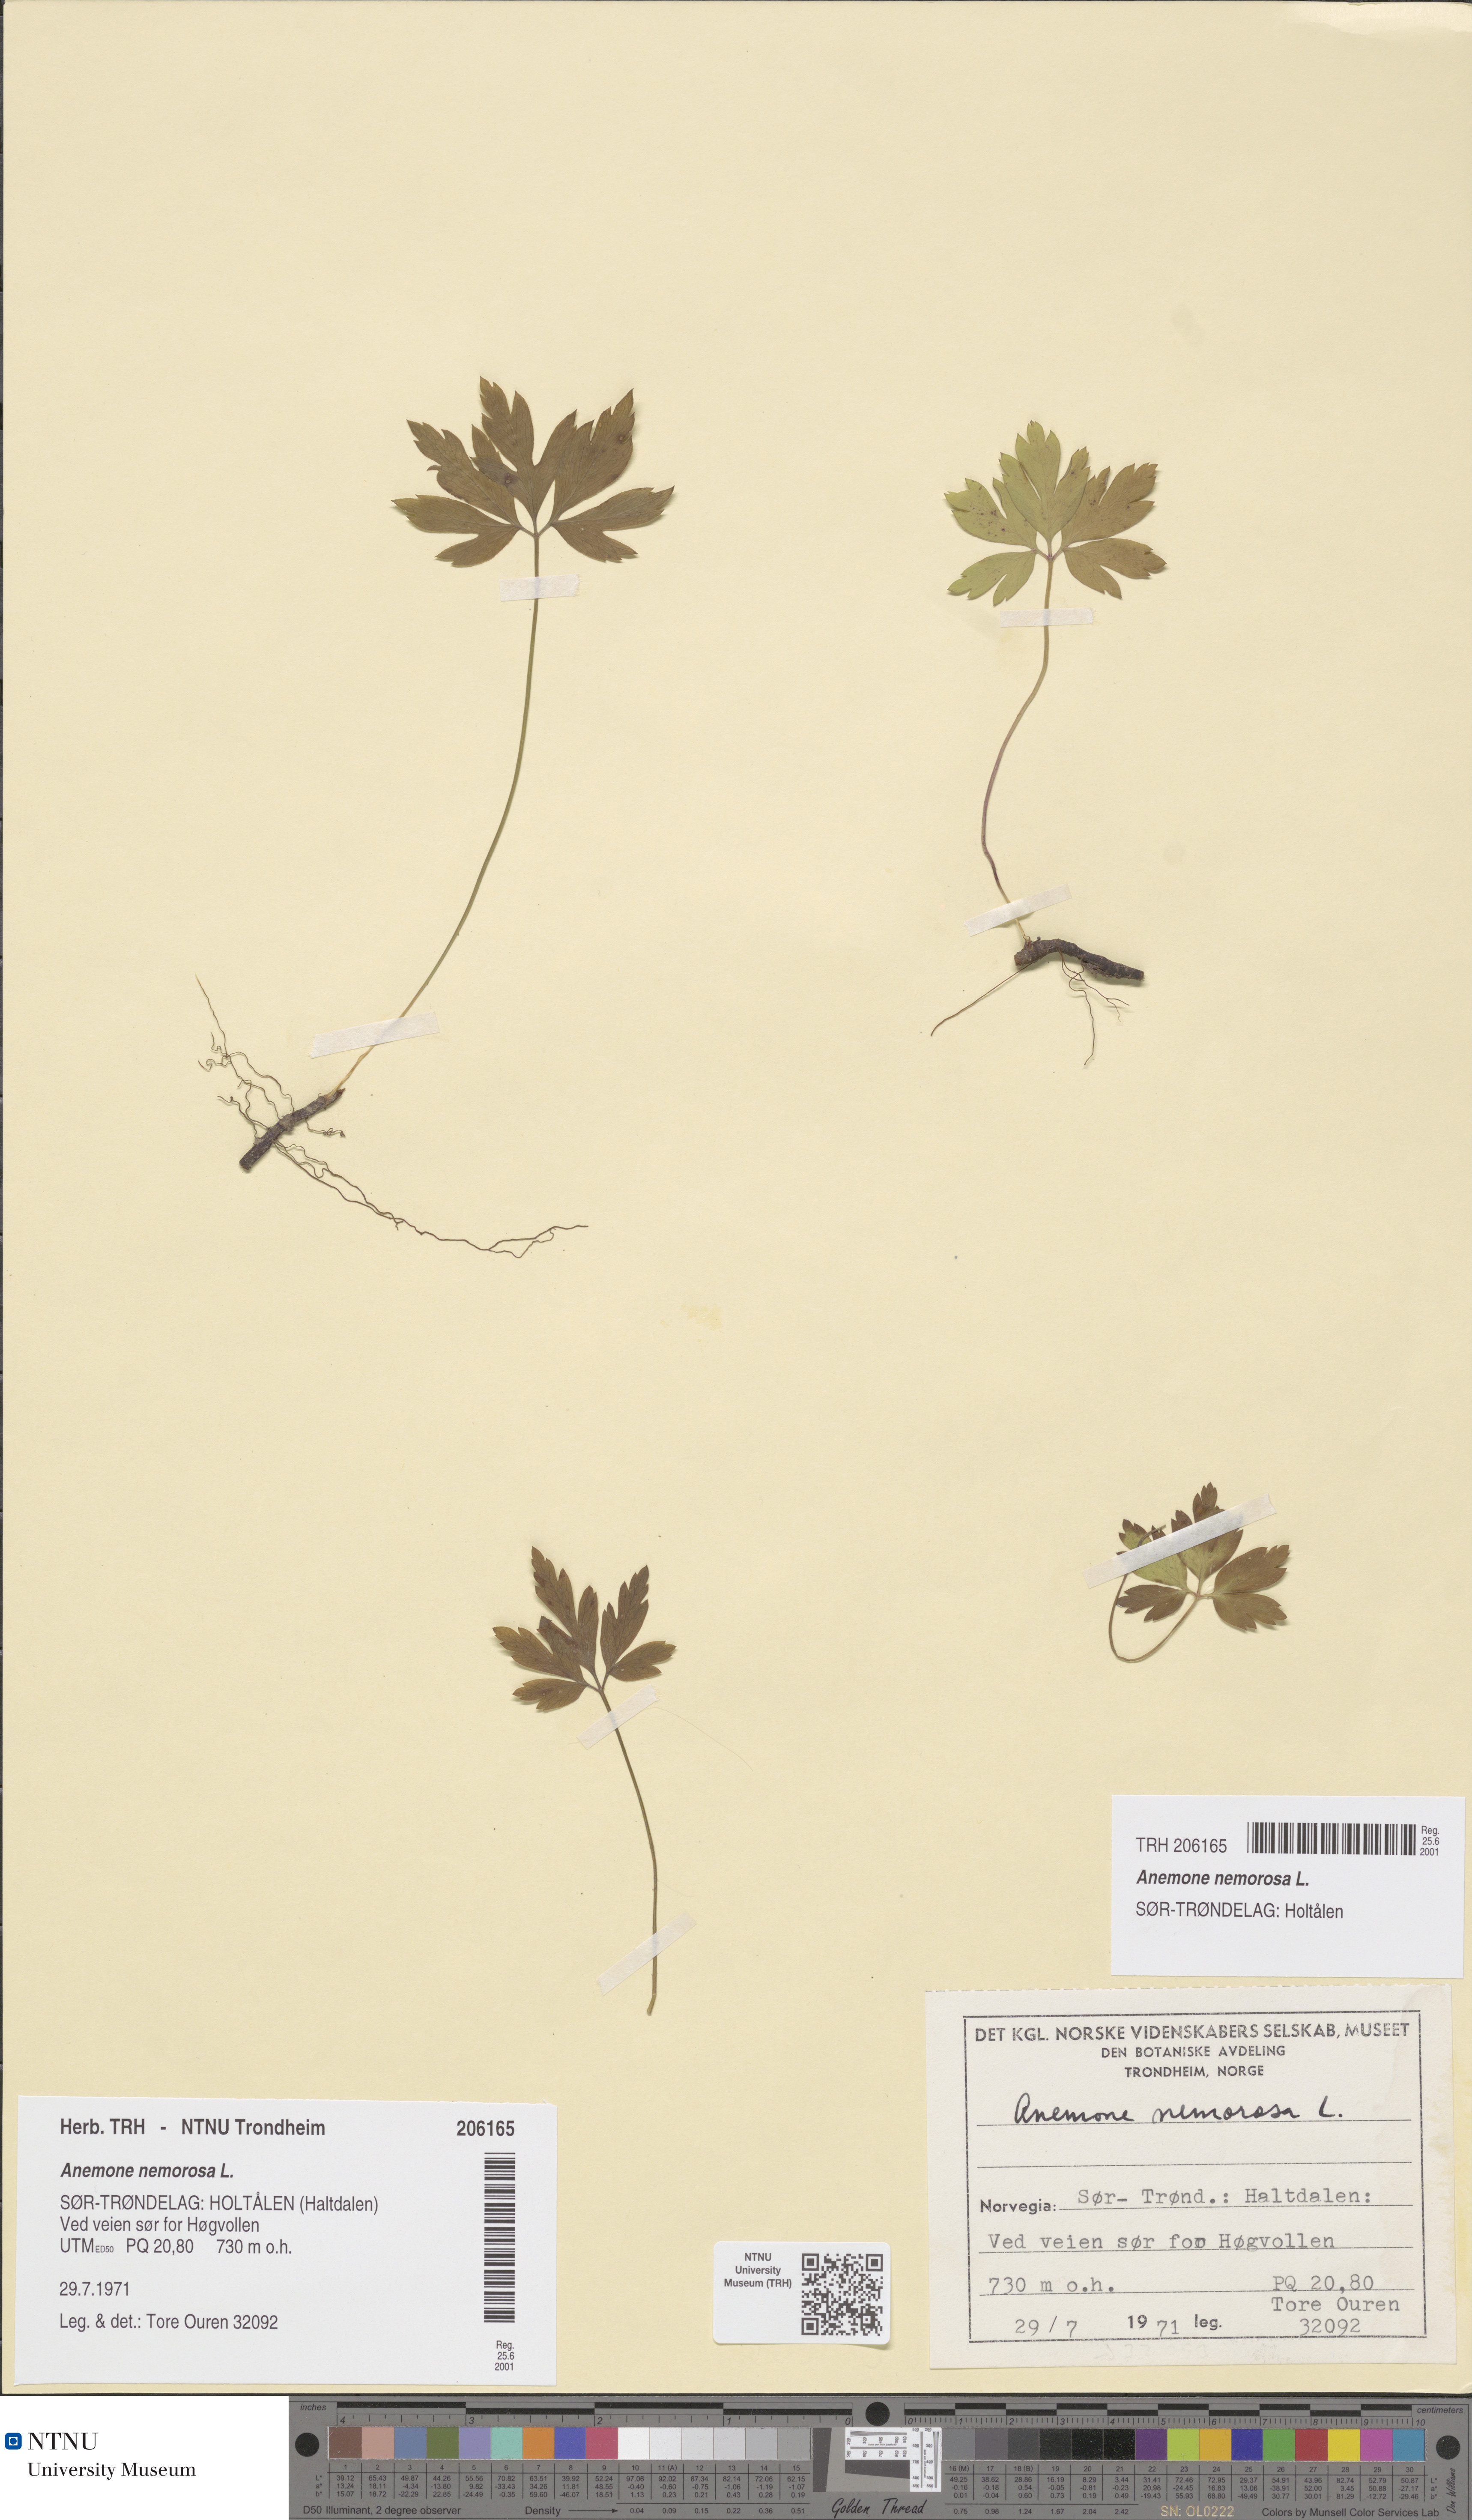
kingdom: Plantae
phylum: Tracheophyta
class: Magnoliopsida
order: Ranunculales
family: Ranunculaceae
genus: Anemone
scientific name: Anemone nemorosa
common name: Wood anemone
